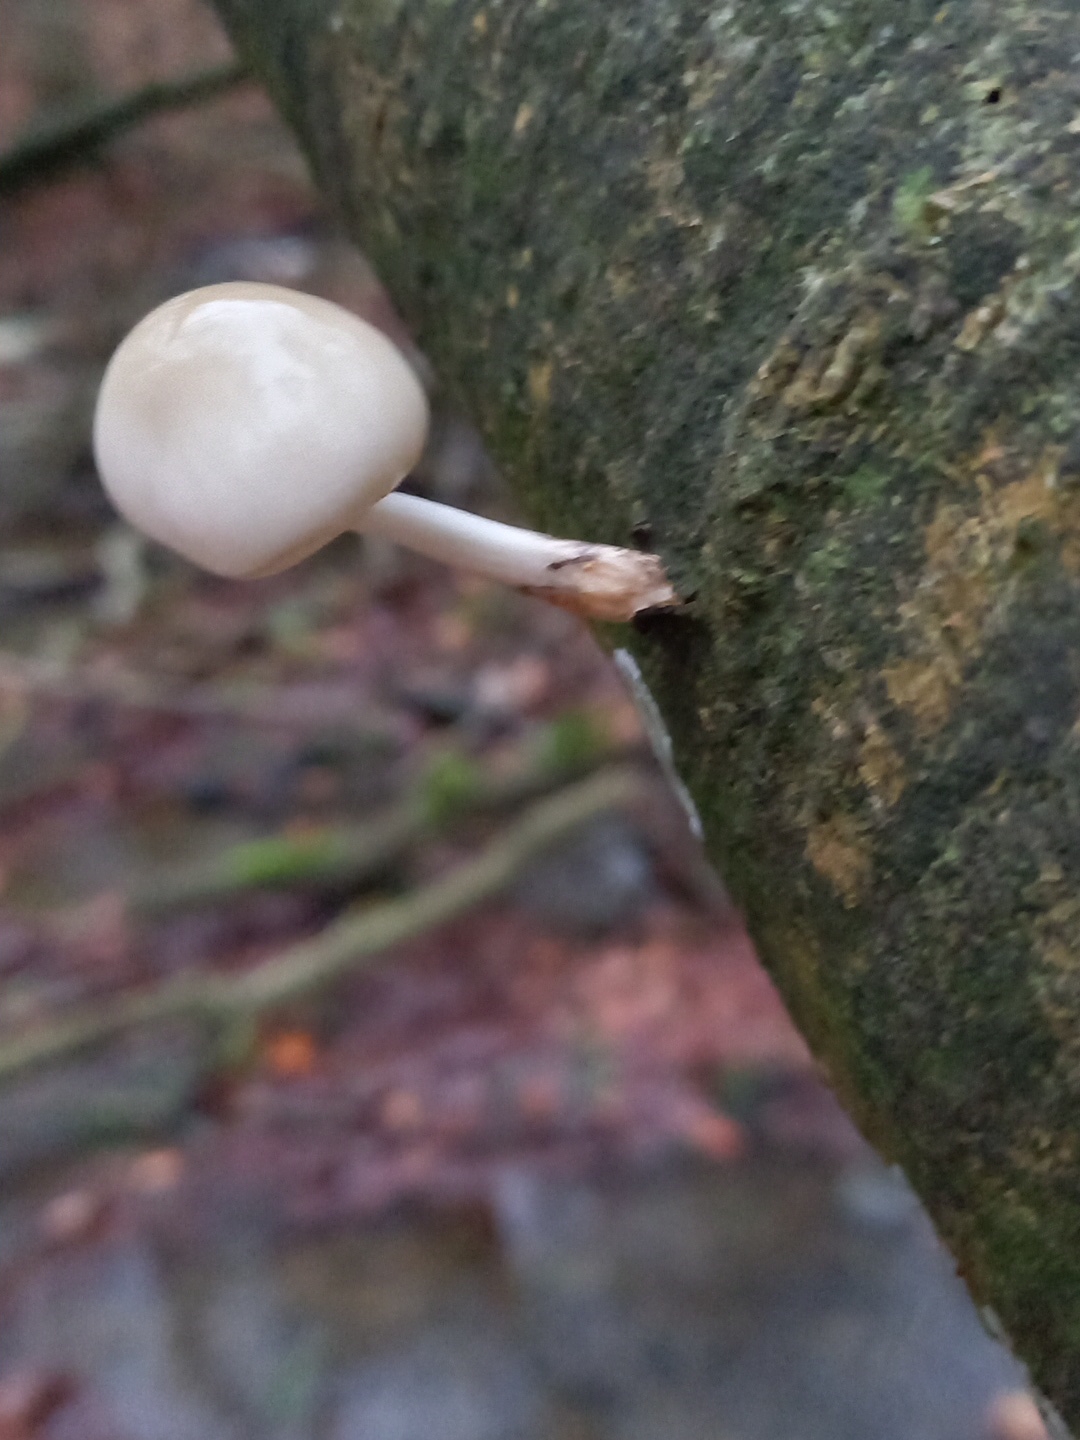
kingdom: Fungi
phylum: Basidiomycota
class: Agaricomycetes
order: Agaricales
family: Physalacriaceae
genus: Mucidula
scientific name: Mucidula mucida
